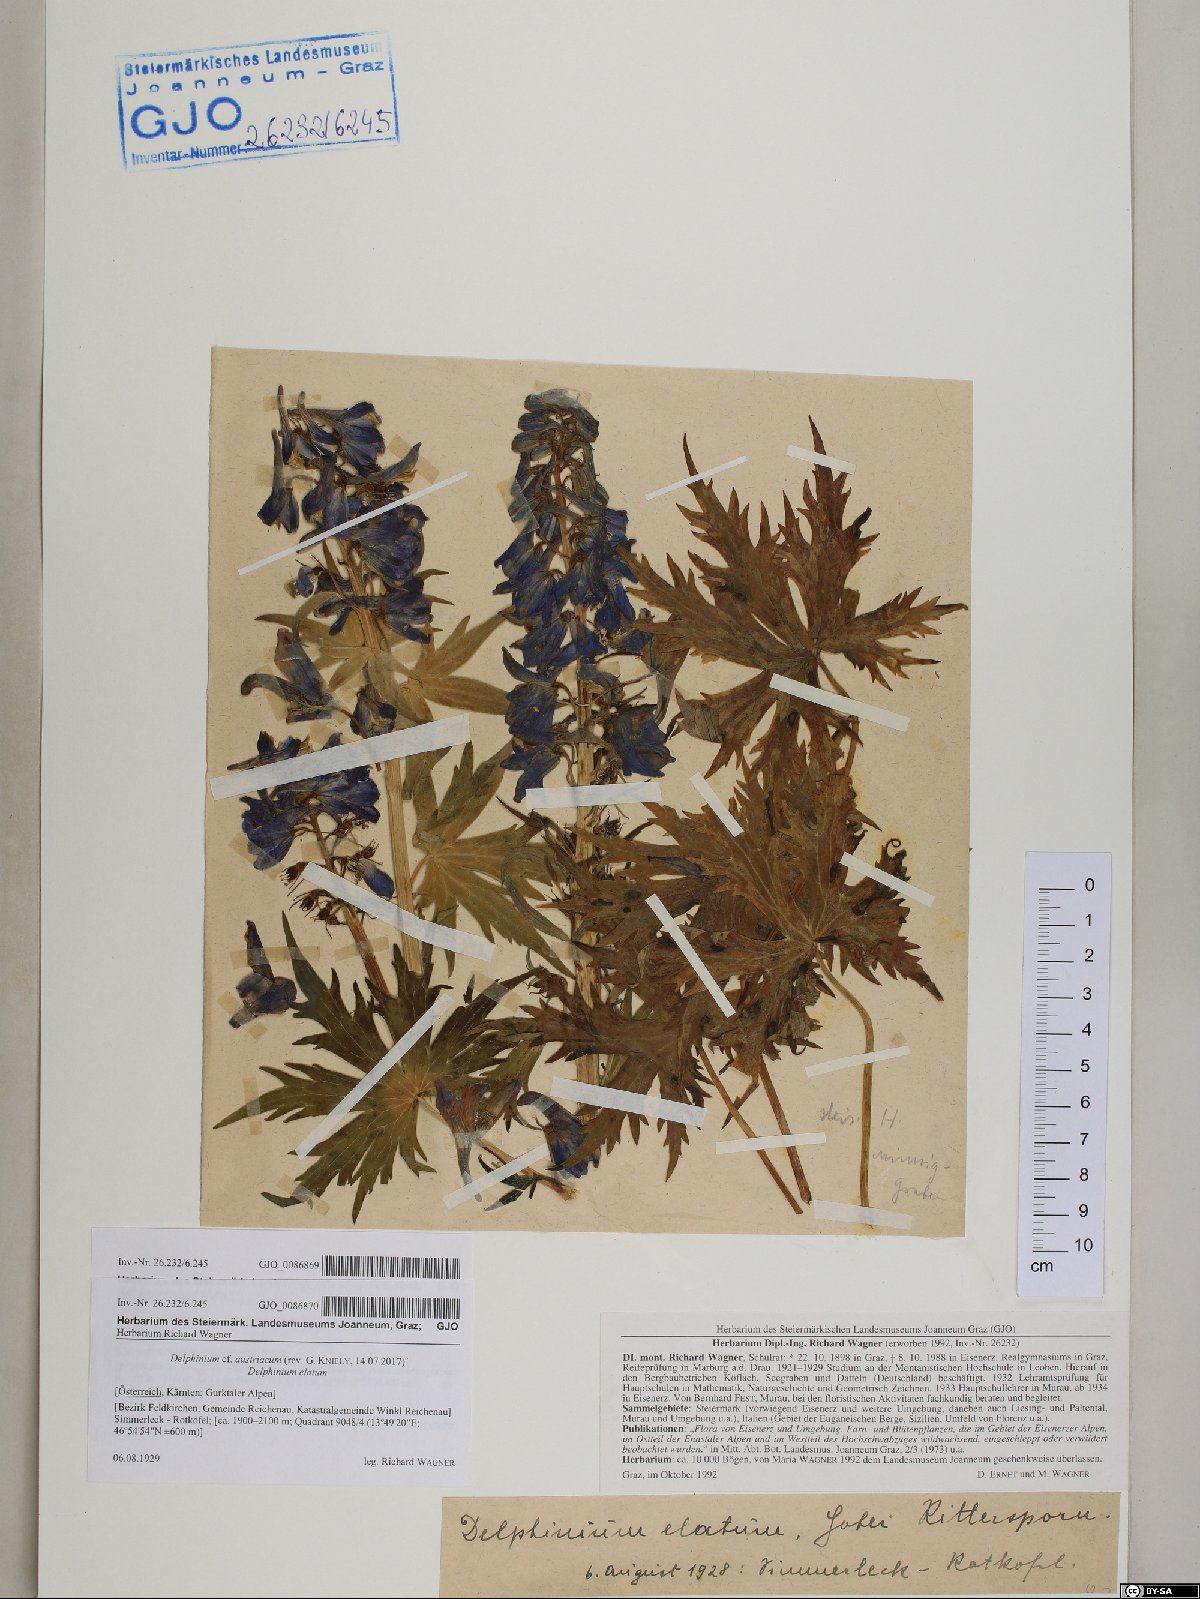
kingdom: Plantae
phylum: Tracheophyta
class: Magnoliopsida
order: Ranunculales
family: Ranunculaceae
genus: Delphinium
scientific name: Delphinium austriacum
